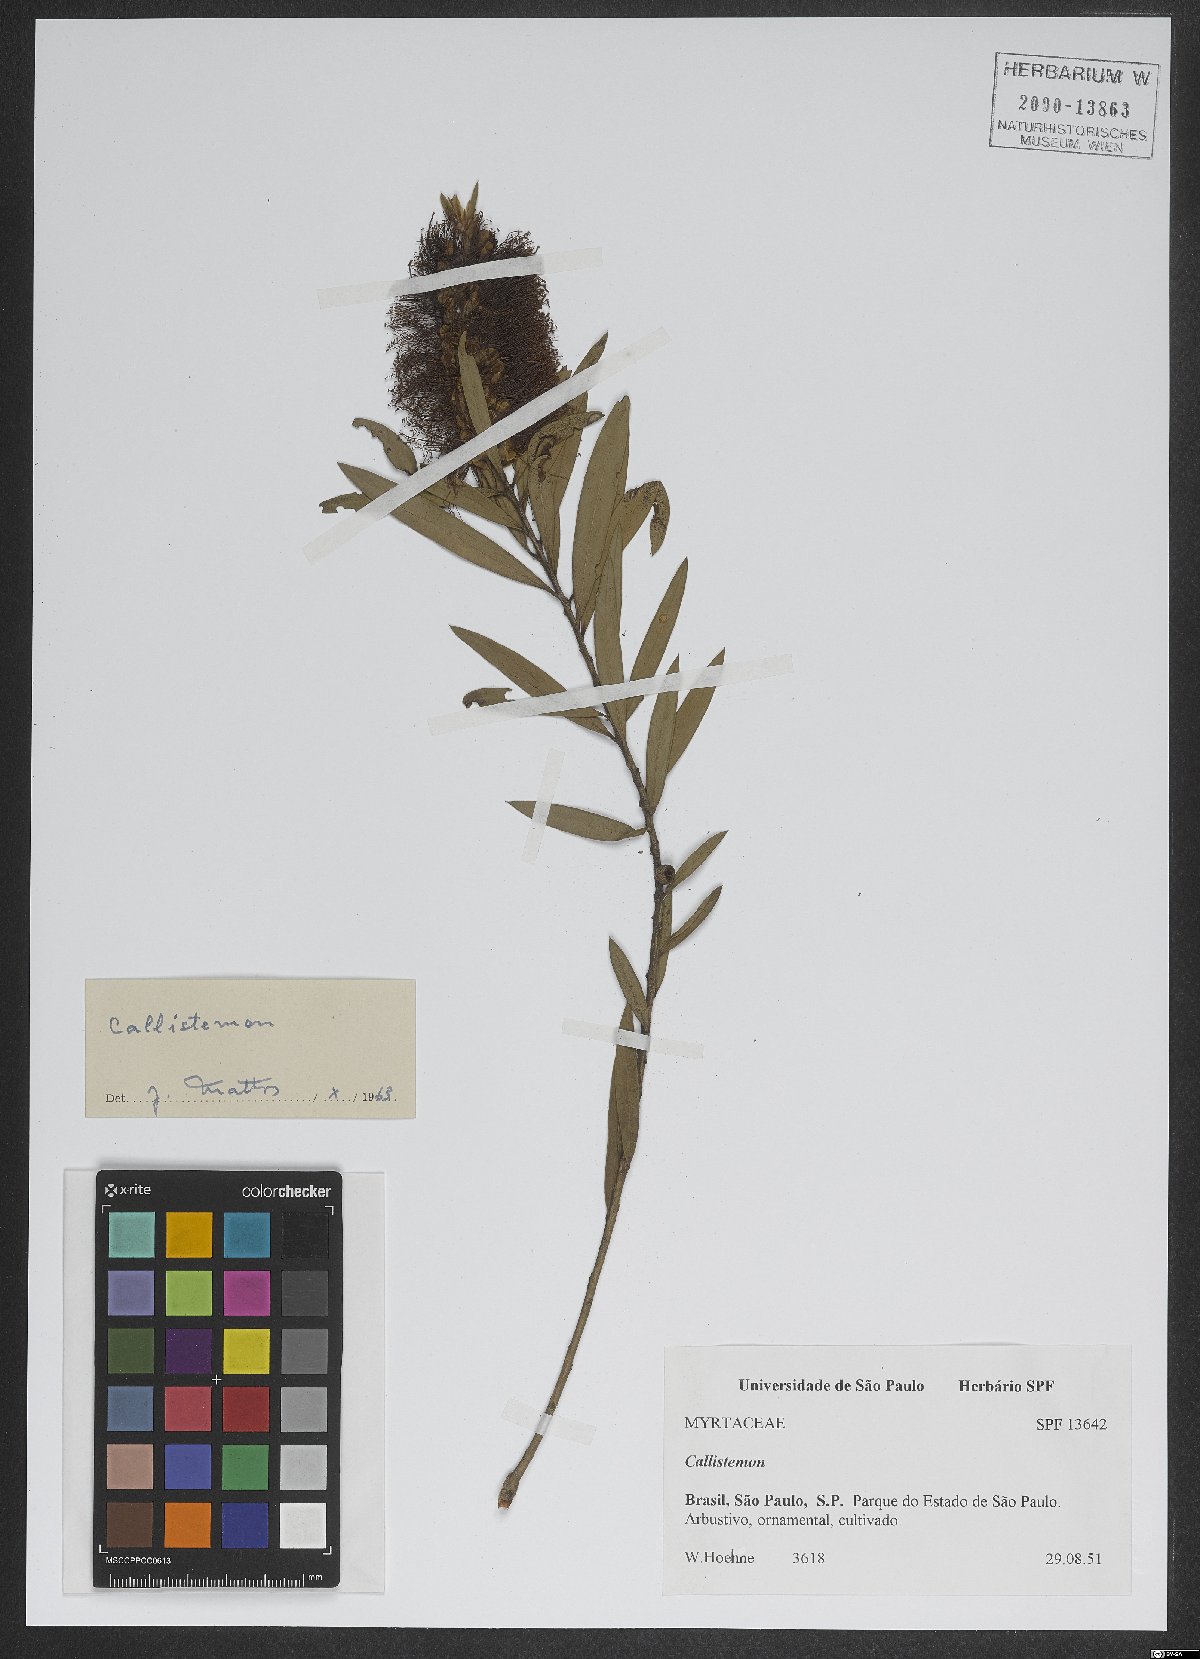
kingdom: Plantae
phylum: Tracheophyta
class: Magnoliopsida
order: Myrtales
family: Myrtaceae
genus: Callistemon
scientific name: Callistemon
